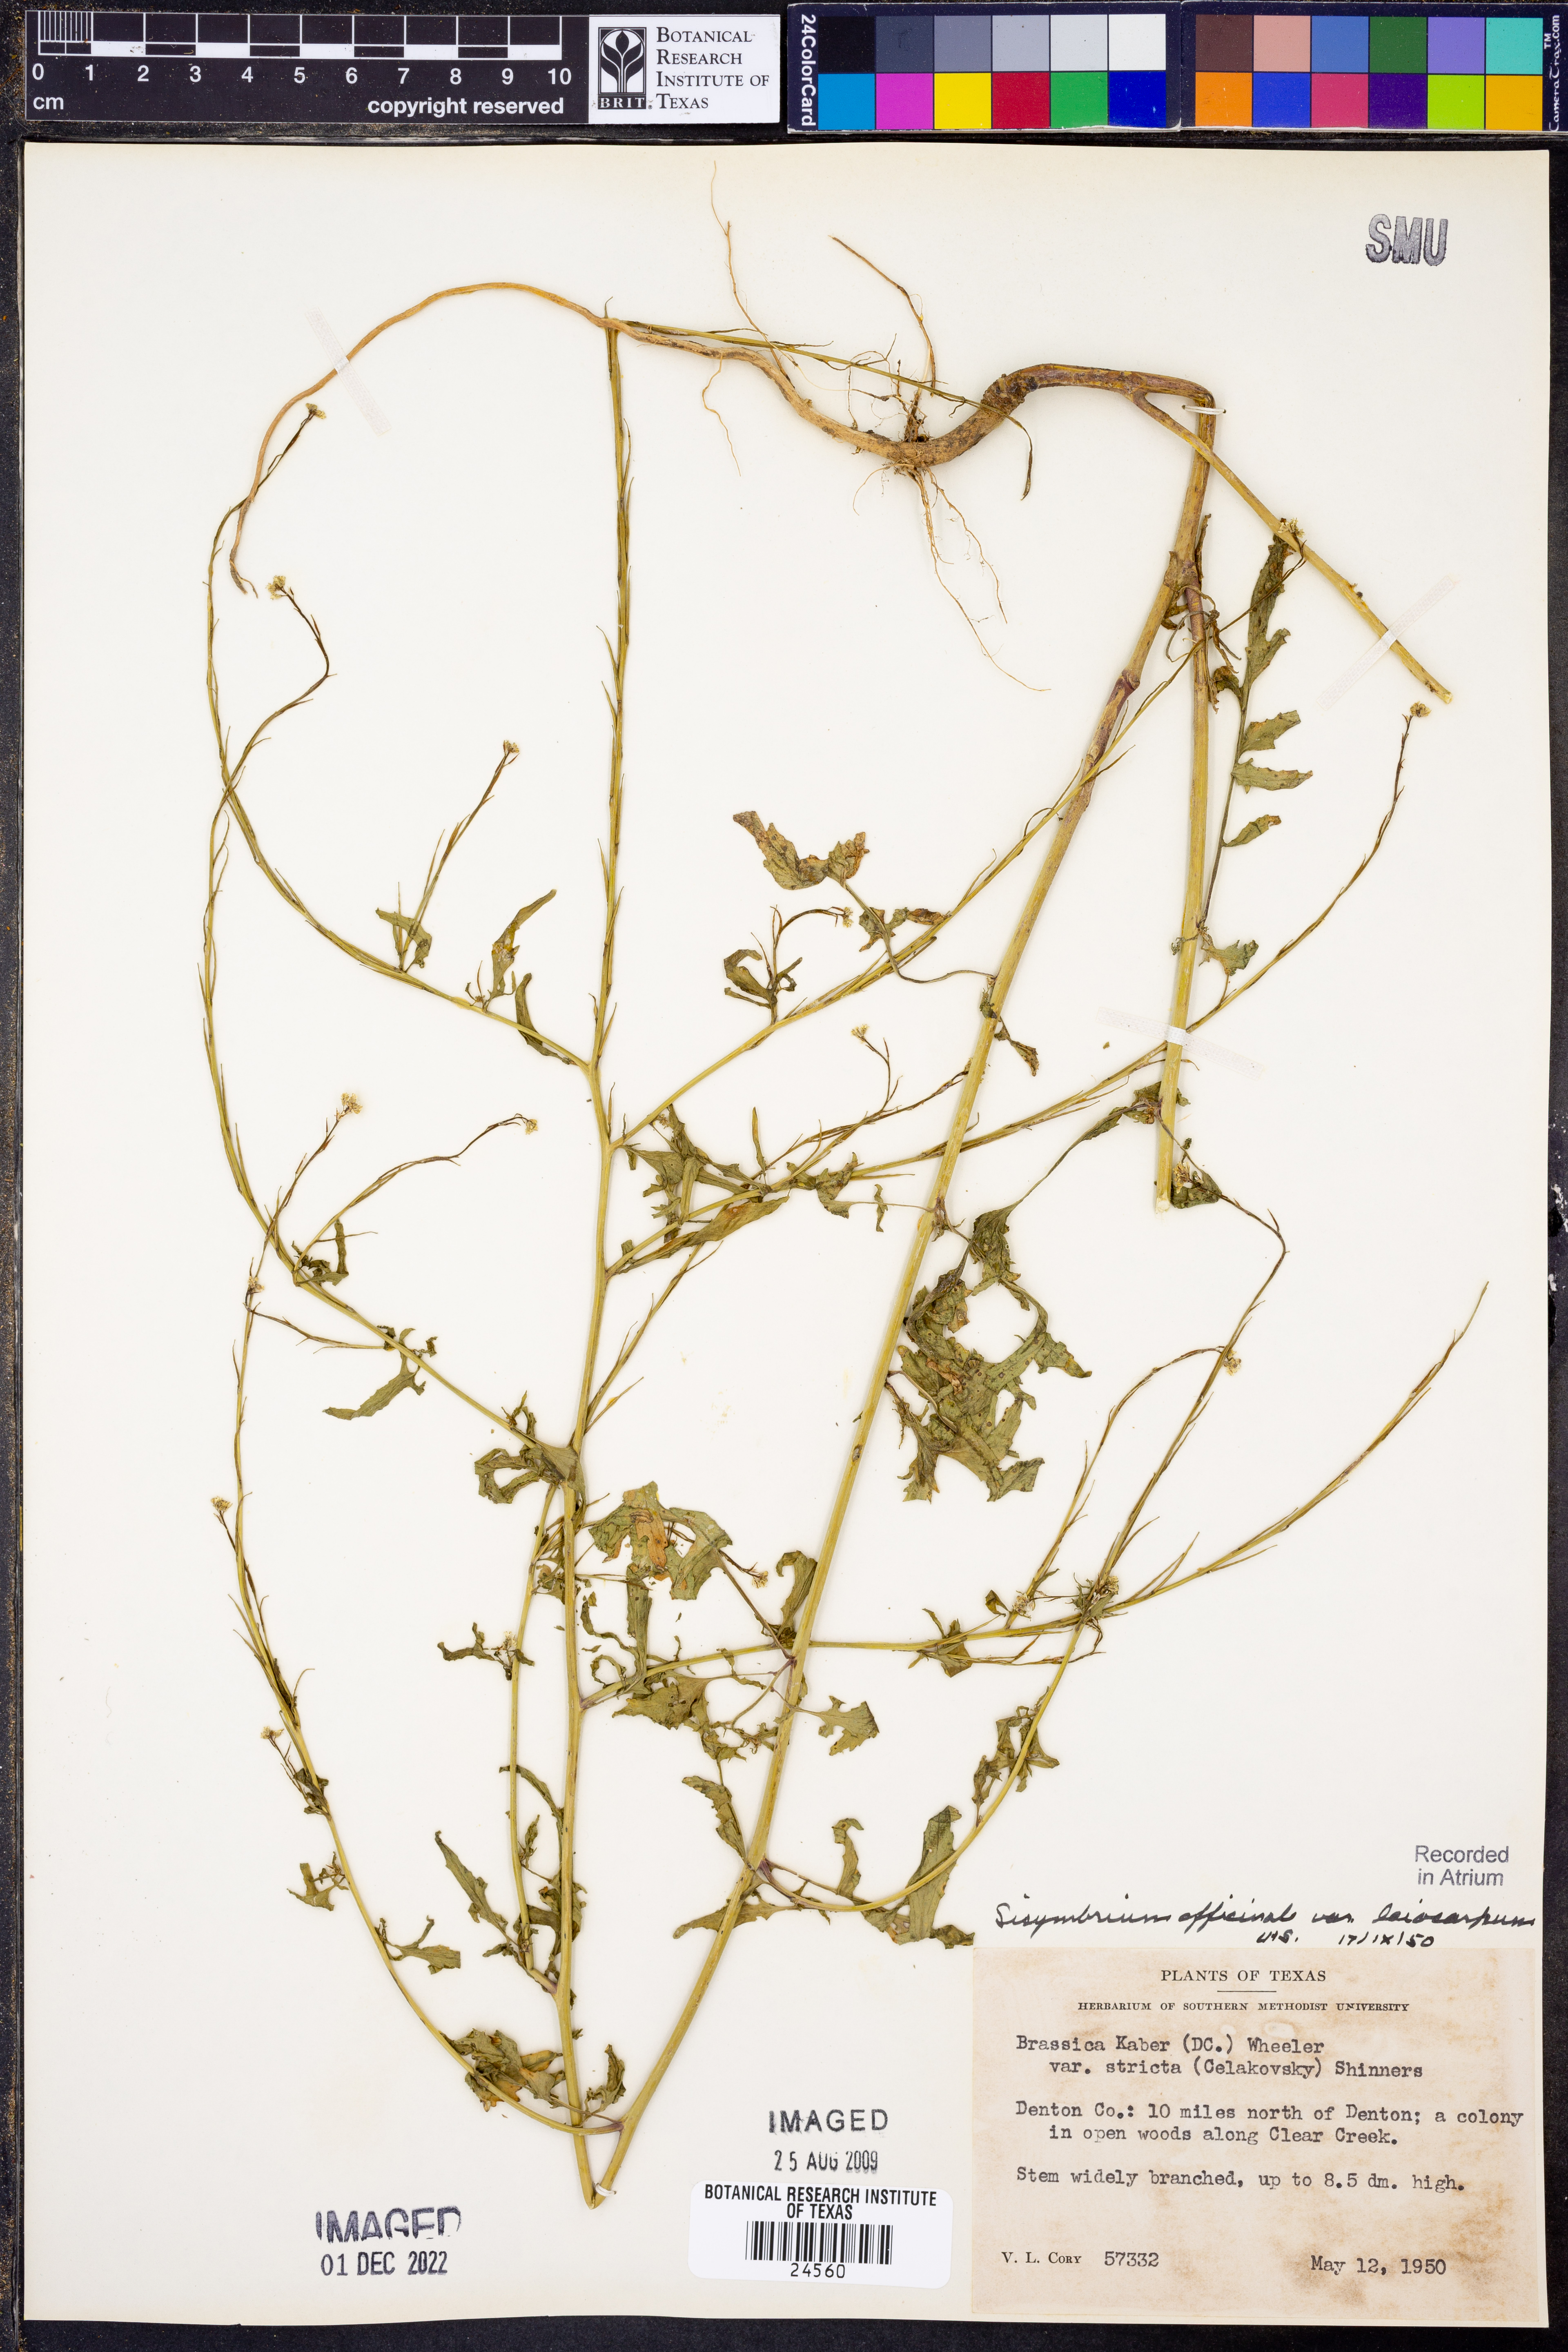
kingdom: Plantae
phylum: Tracheophyta
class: Magnoliopsida
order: Brassicales
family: Brassicaceae
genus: Sisymbrium
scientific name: Sisymbrium officinale
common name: Hedge mustard
